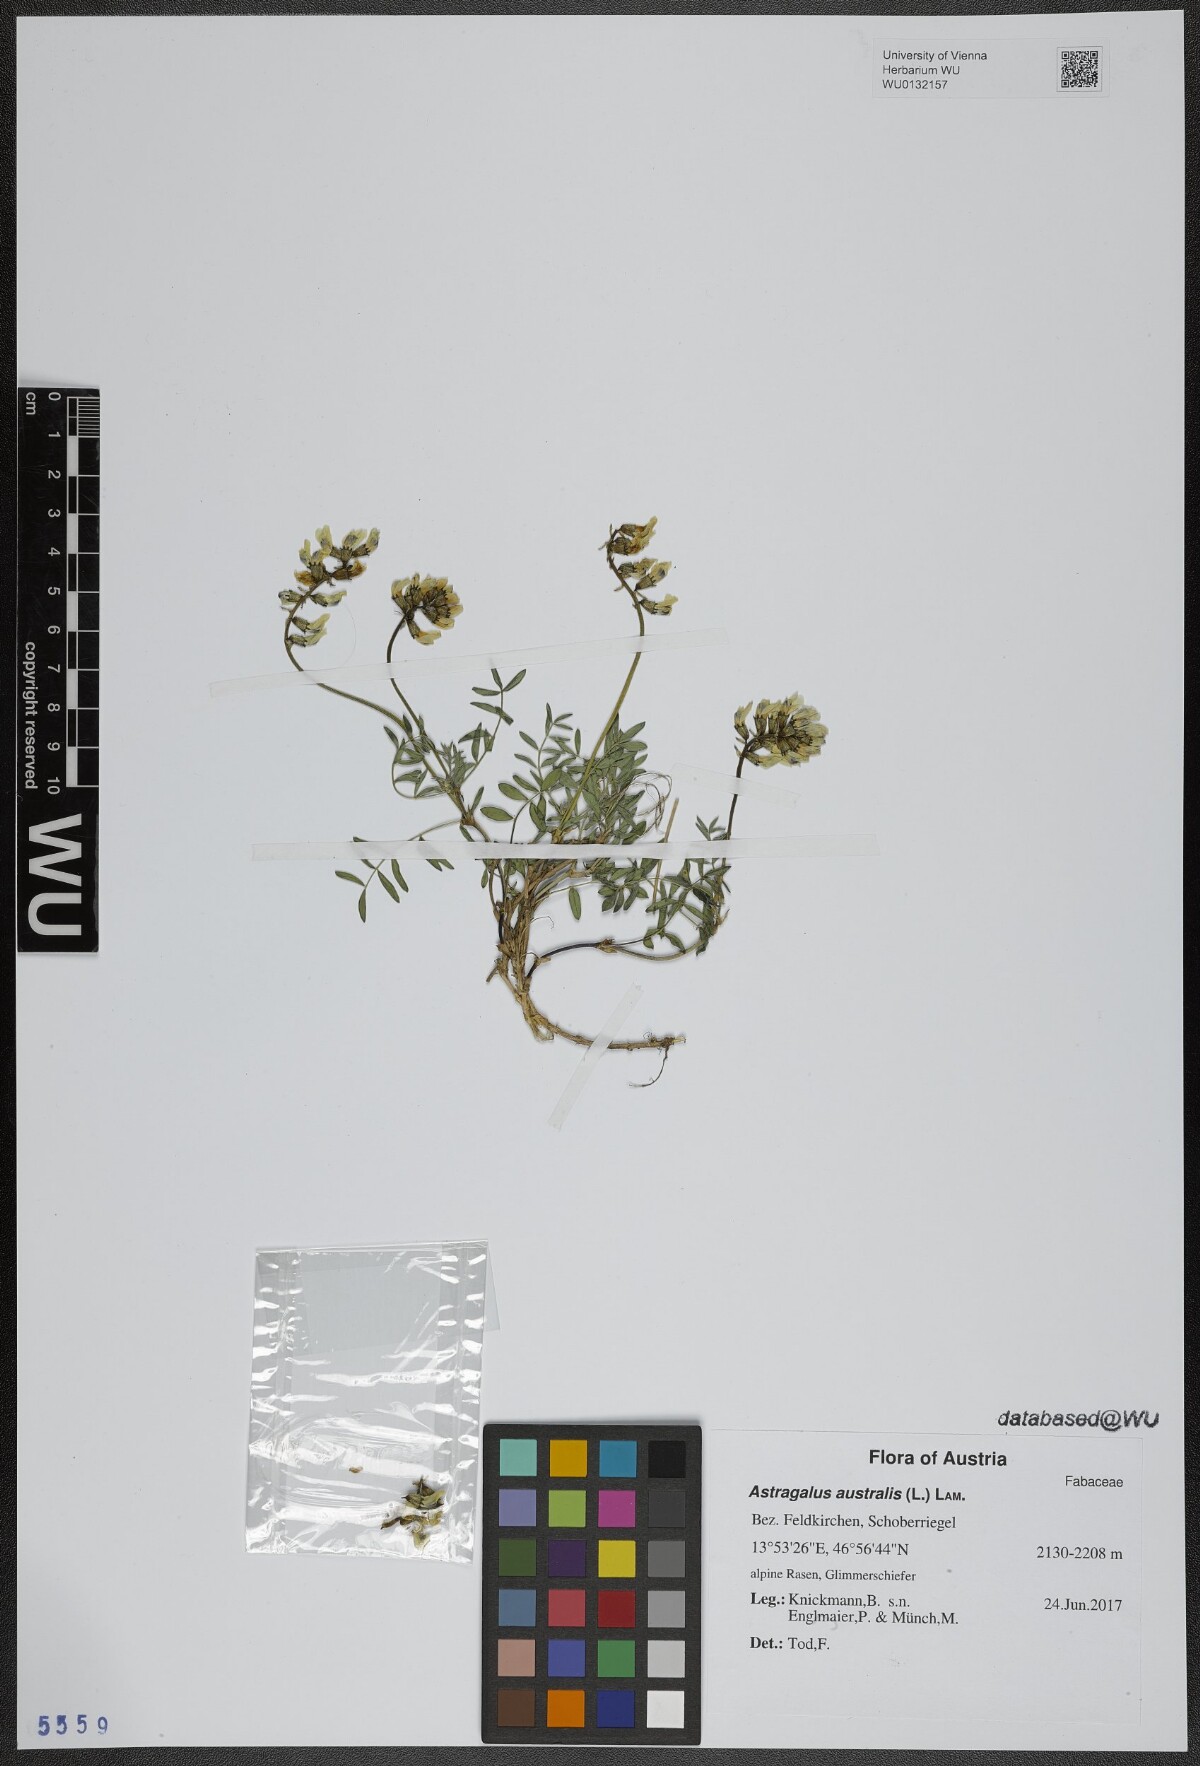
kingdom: Plantae
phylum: Tracheophyta
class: Magnoliopsida
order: Fabales
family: Fabaceae
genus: Astragalus
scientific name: Astragalus australis
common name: Indian milk-vetch
